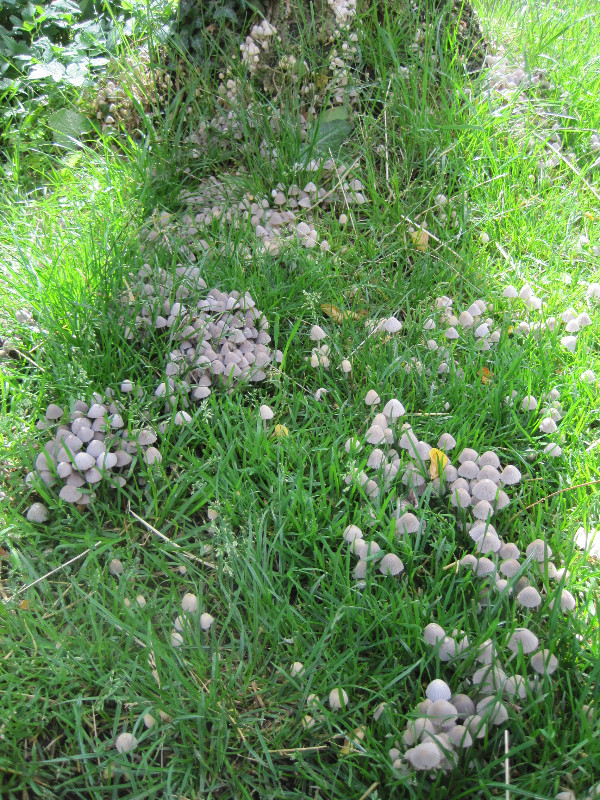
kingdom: Fungi
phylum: Basidiomycota
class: Agaricomycetes
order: Agaricales
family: Psathyrellaceae
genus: Coprinellus
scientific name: Coprinellus disseminatus
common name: bredsået blækhat
